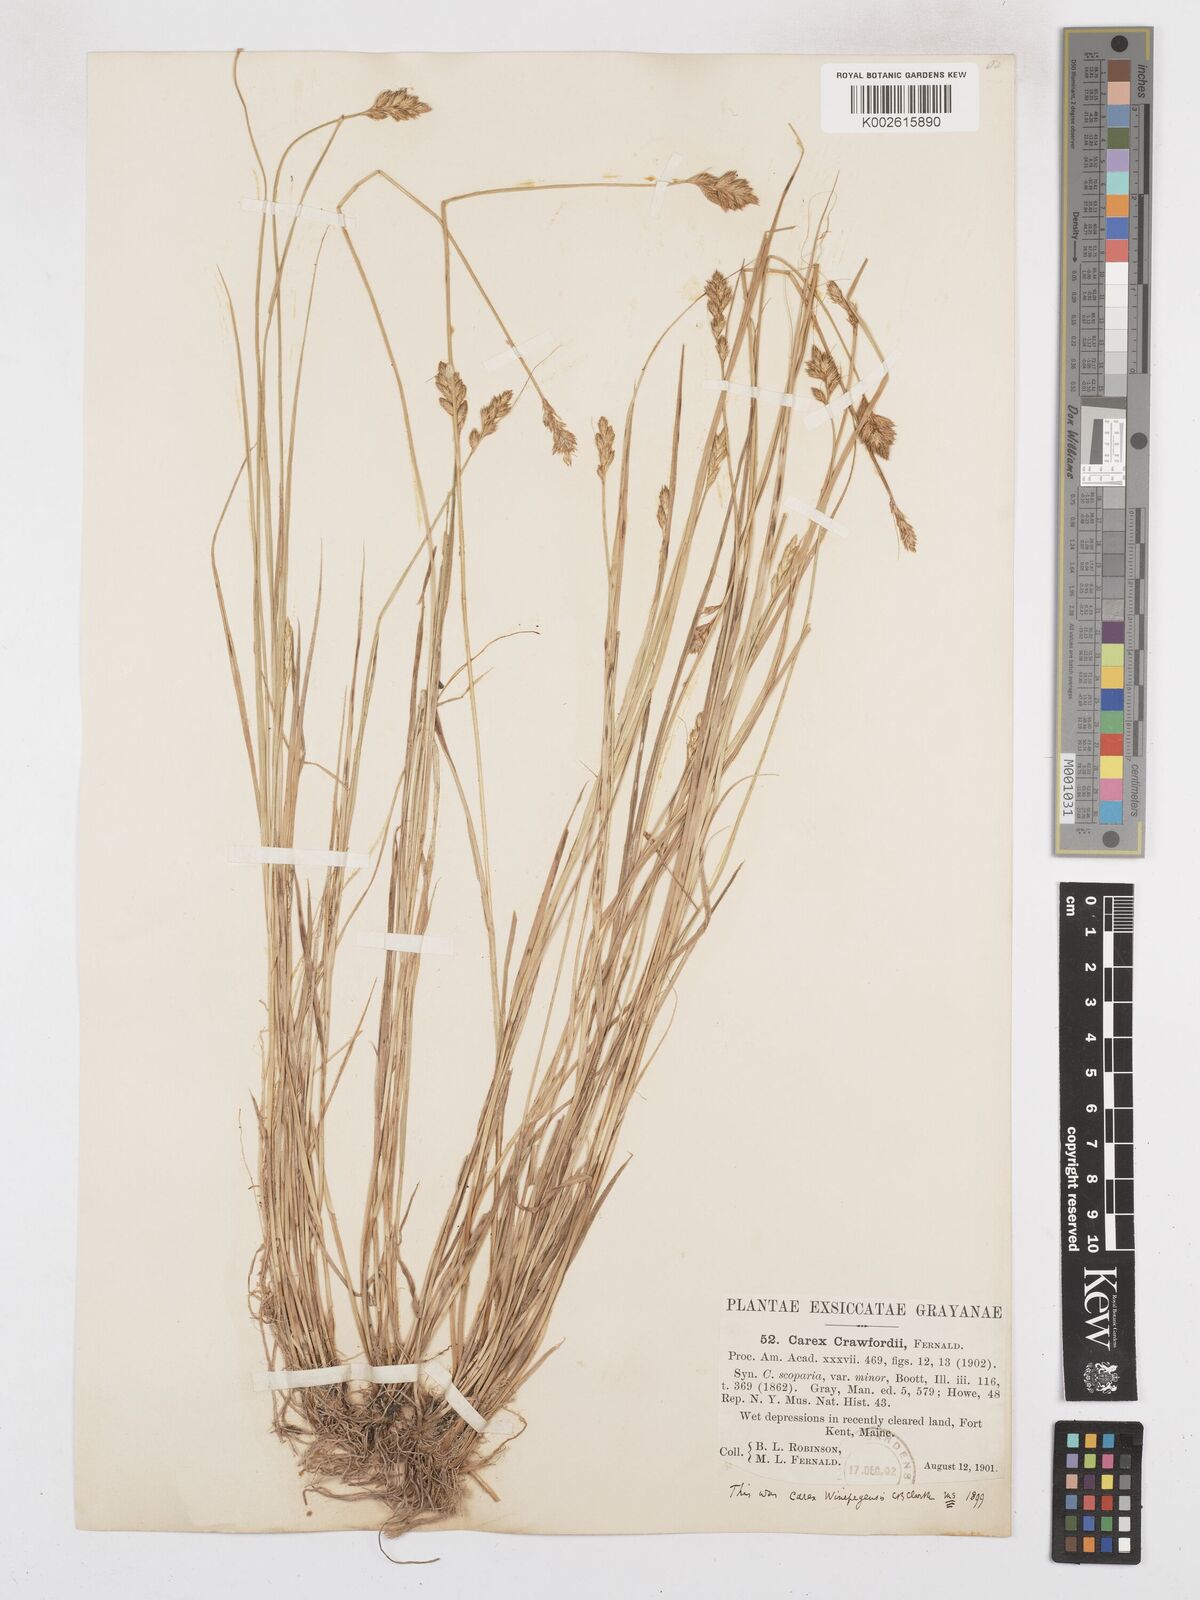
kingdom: Plantae
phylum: Tracheophyta
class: Liliopsida
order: Poales
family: Cyperaceae
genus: Carex
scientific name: Carex crawfordii
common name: Crawford's sedge
